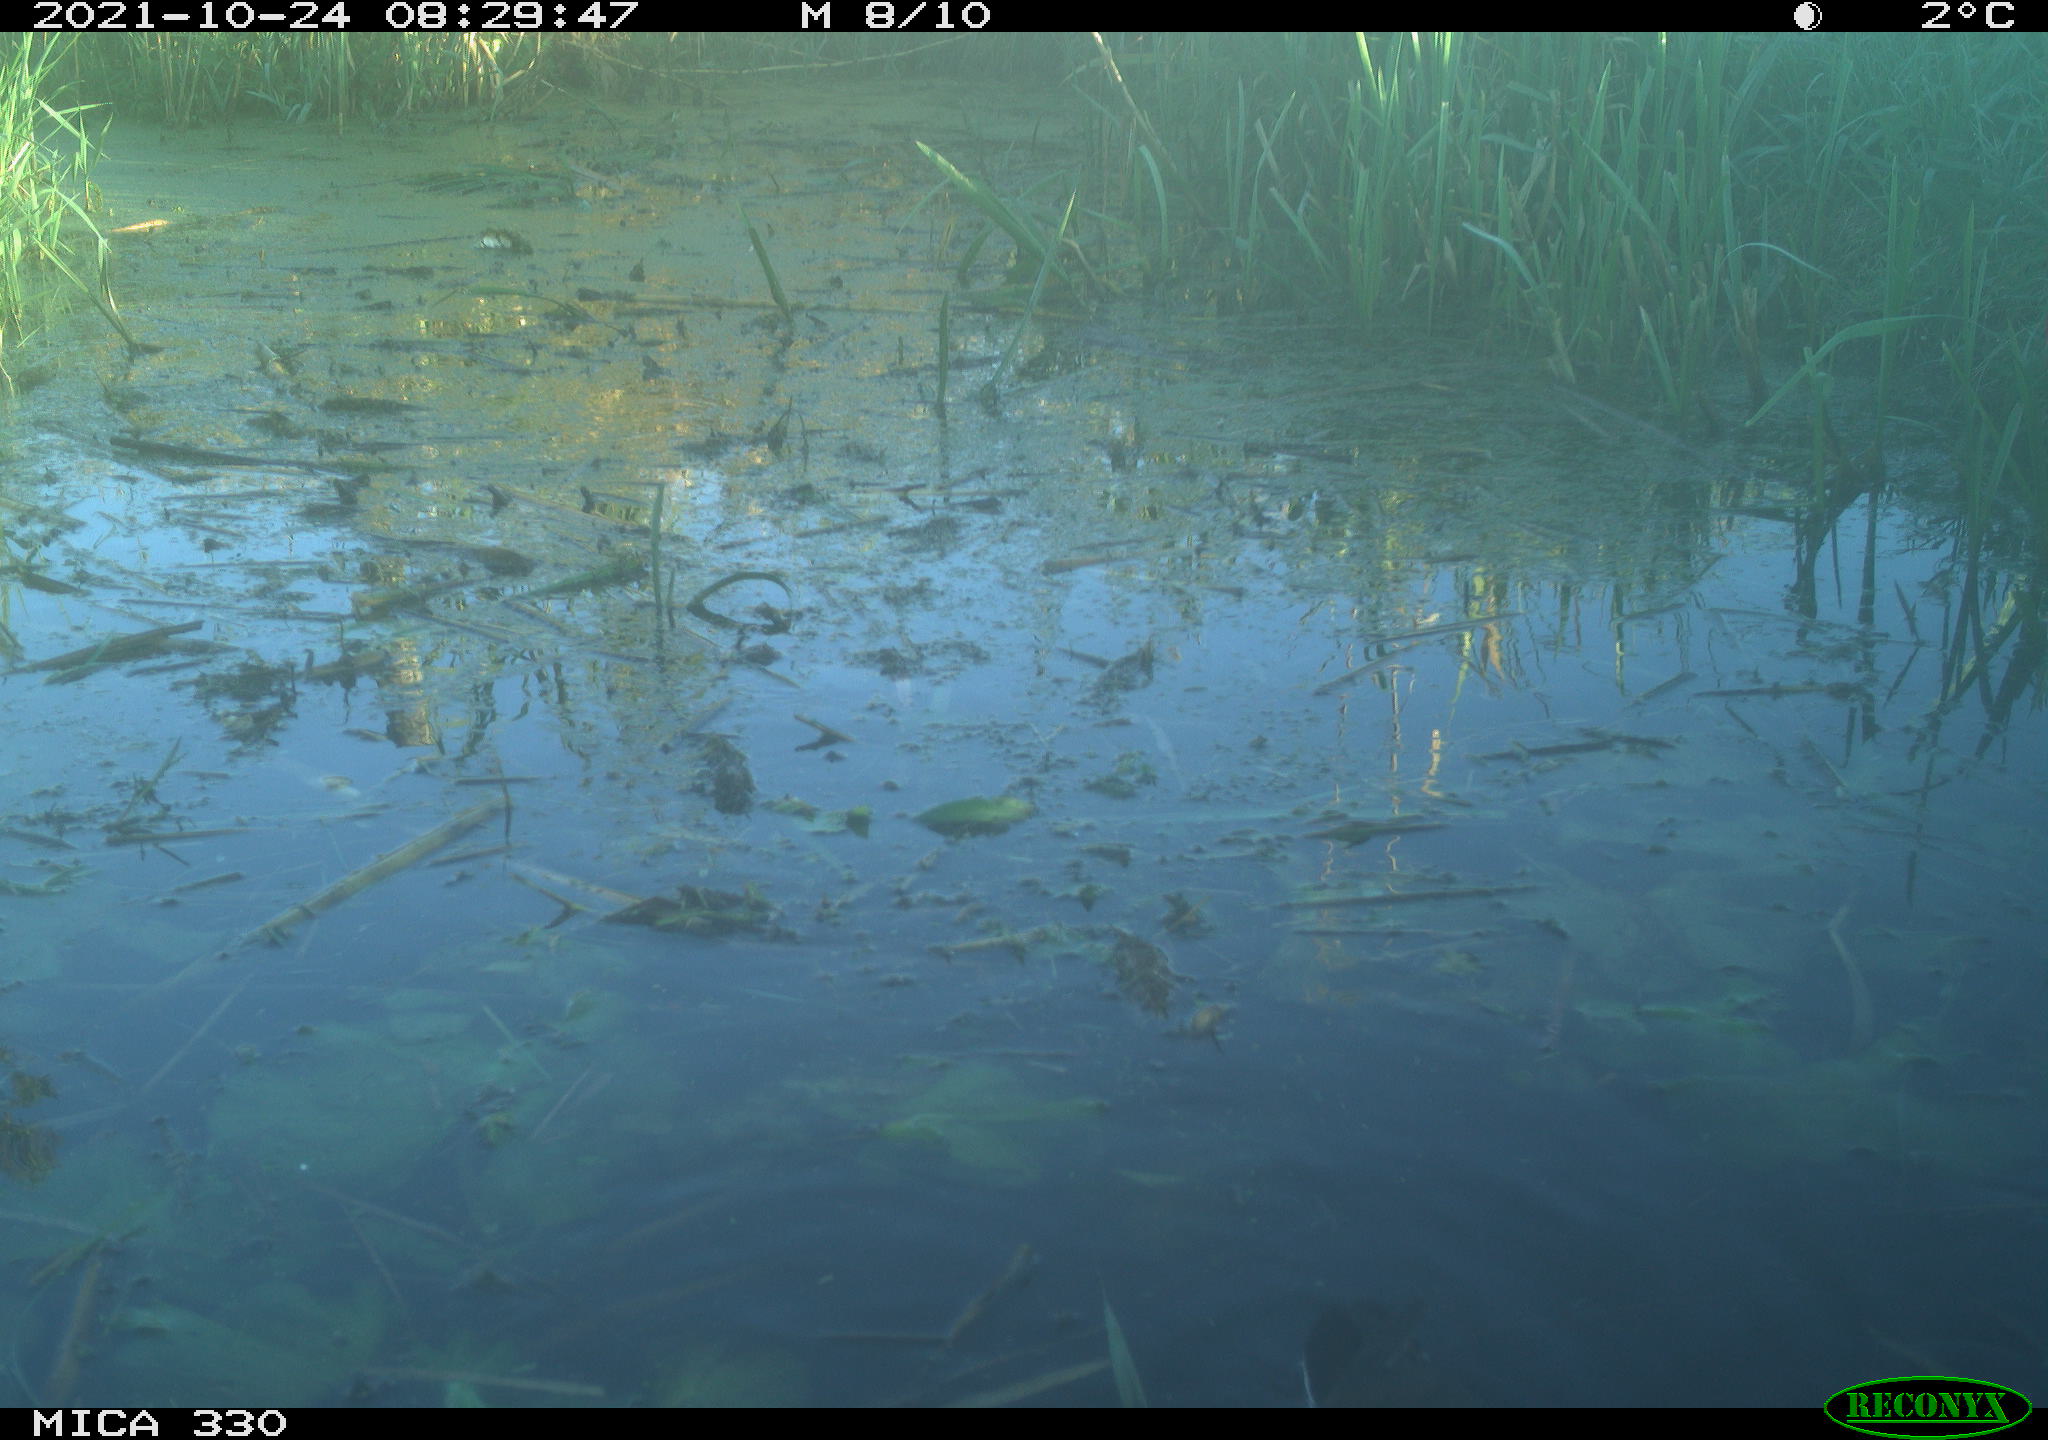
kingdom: Animalia
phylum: Chordata
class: Aves
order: Gruiformes
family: Rallidae
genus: Gallinula
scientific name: Gallinula chloropus
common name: Common moorhen
